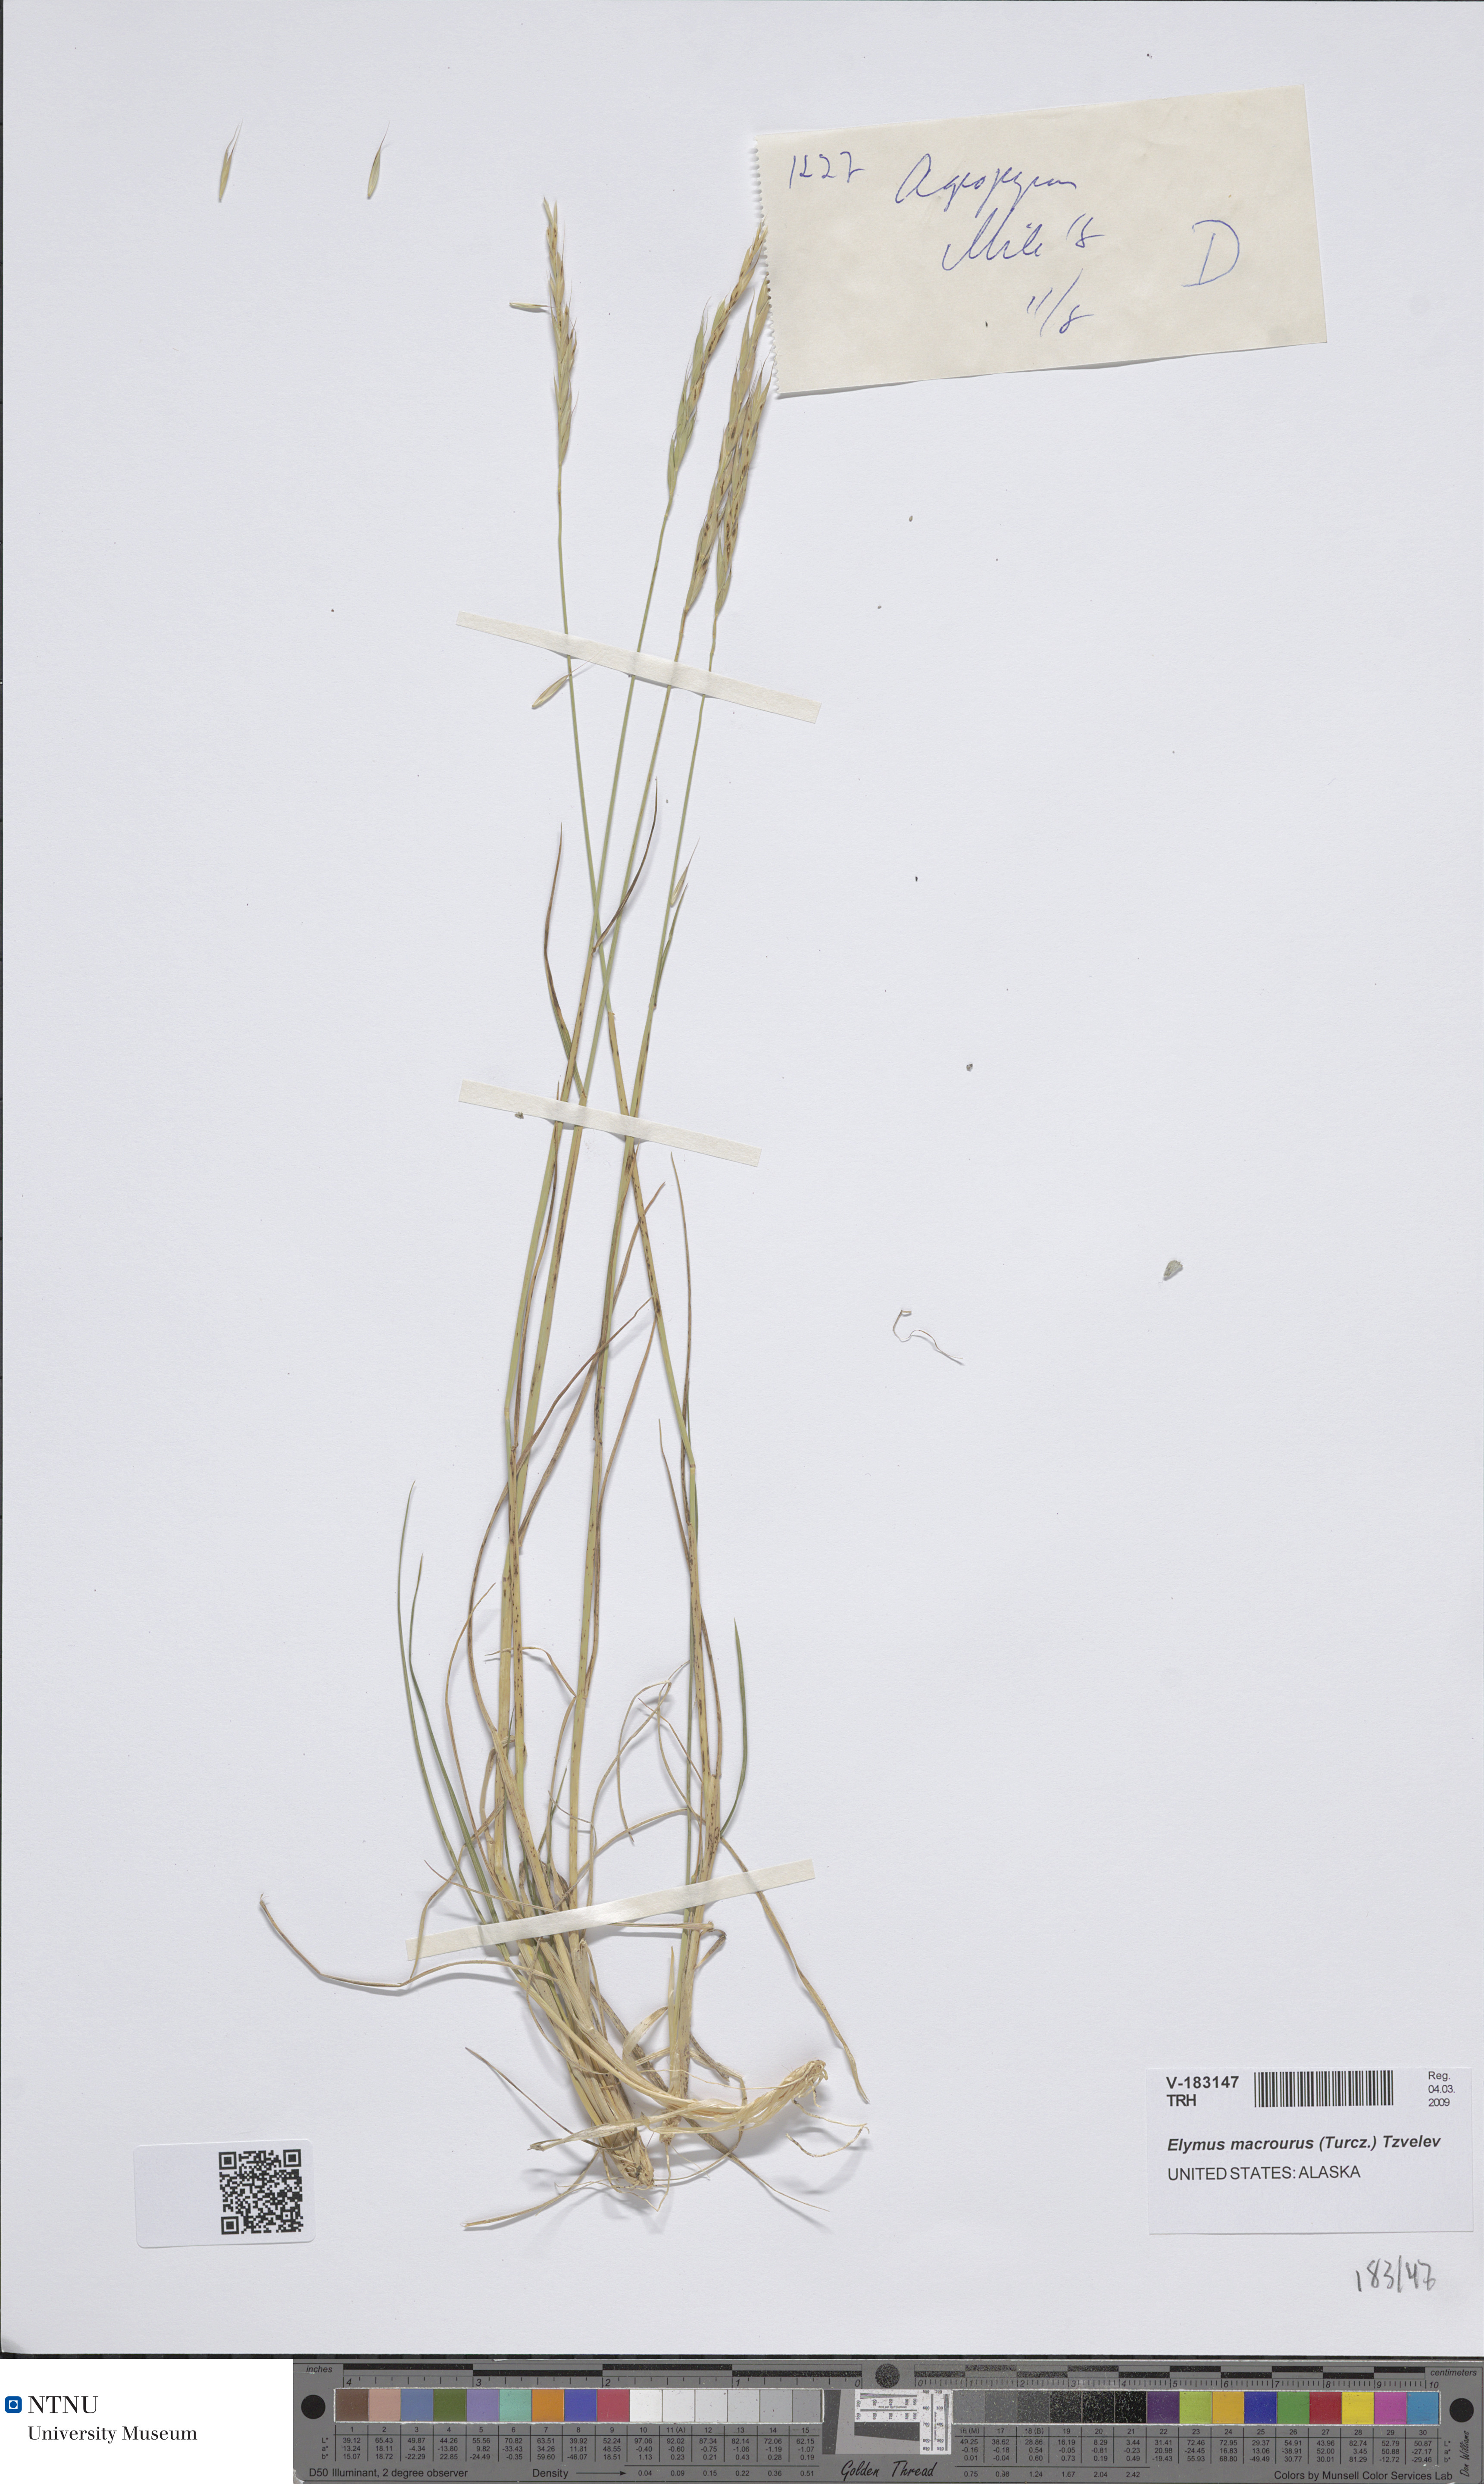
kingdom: Plantae
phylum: Tracheophyta
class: Liliopsida
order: Poales
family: Poaceae
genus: Elymus
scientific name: Elymus macrourus
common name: Northern wheatgrass
